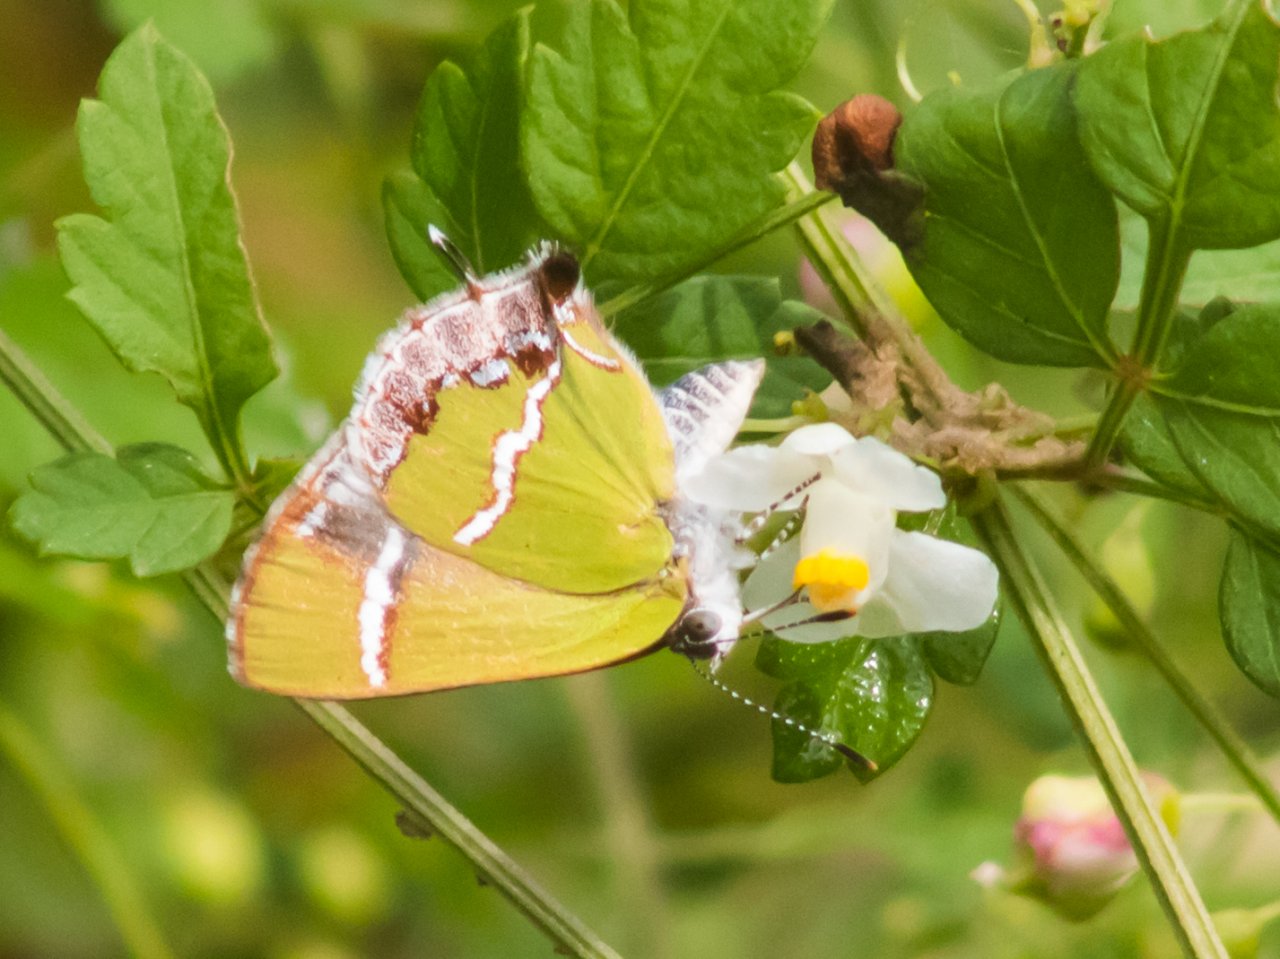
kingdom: Animalia
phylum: Arthropoda
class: Insecta
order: Lepidoptera
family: Lycaenidae
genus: Chlorostrymon
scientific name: Chlorostrymon simaethis
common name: Silver-banded Hairstreak
